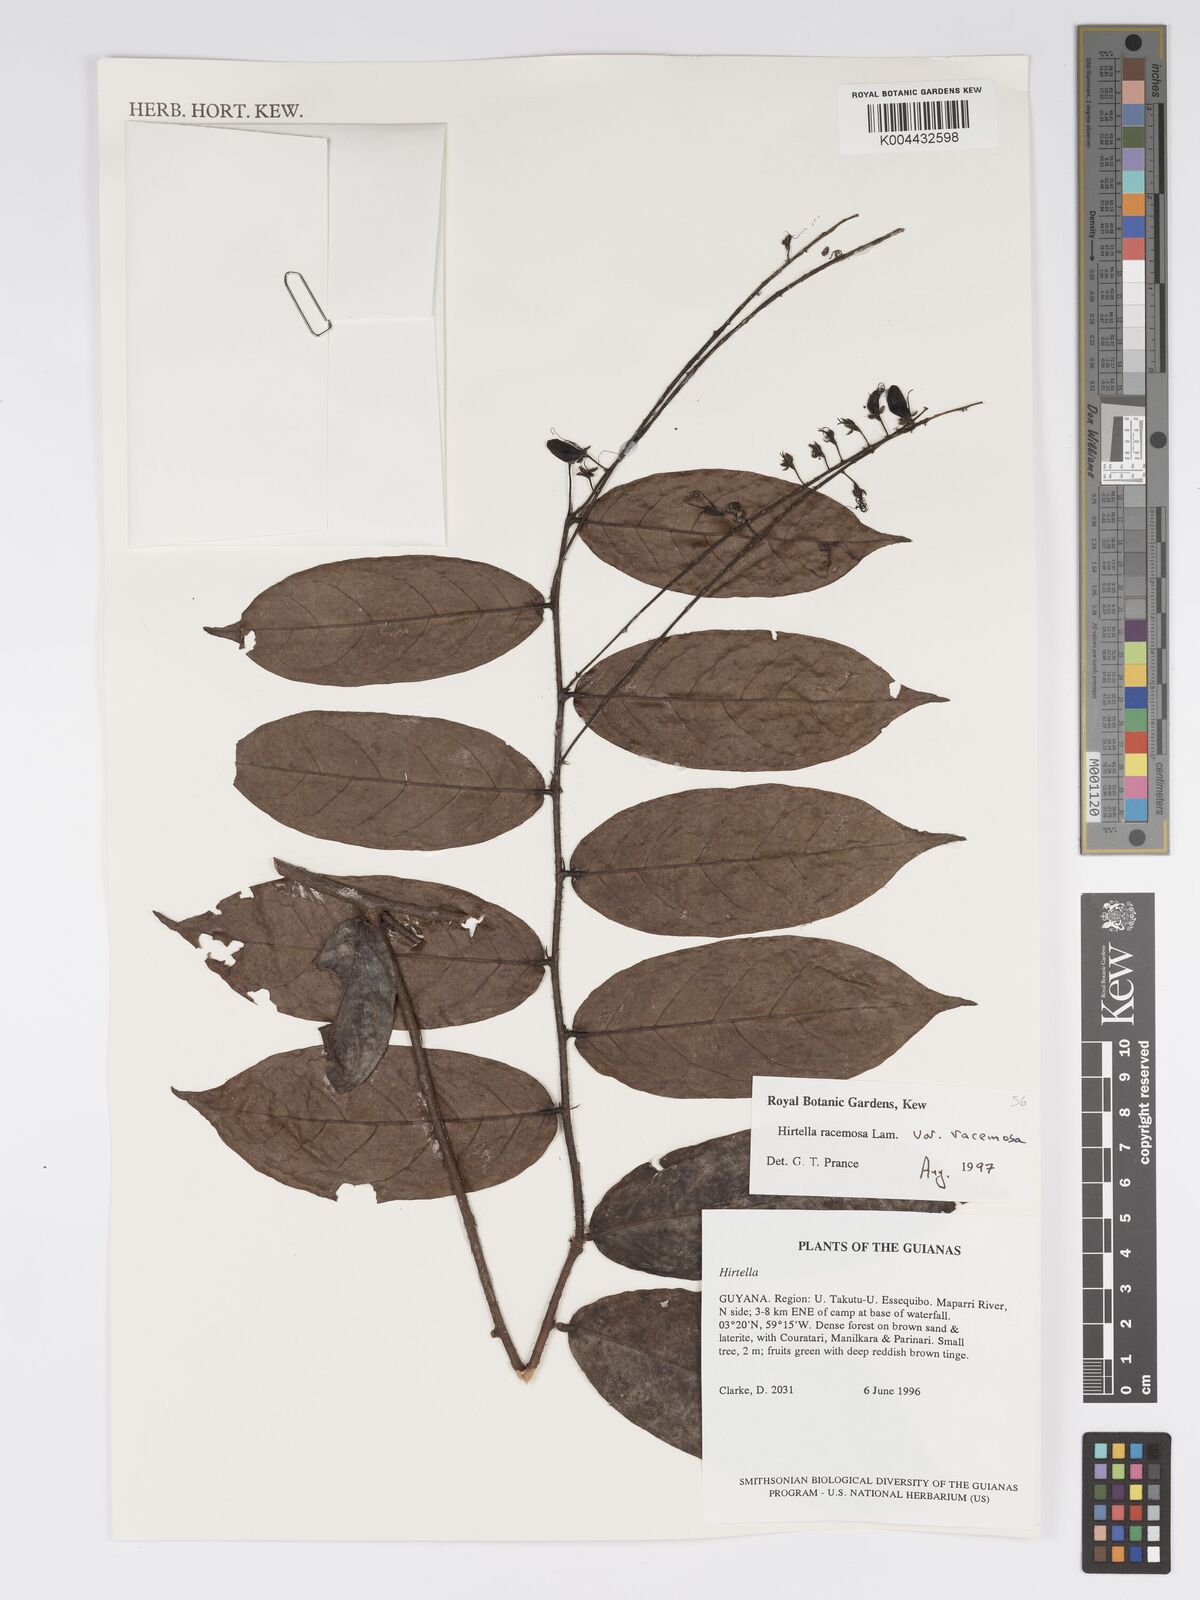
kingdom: Plantae
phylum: Tracheophyta
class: Magnoliopsida
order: Malpighiales
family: Chrysobalanaceae
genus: Hirtella
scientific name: Hirtella racemosa
